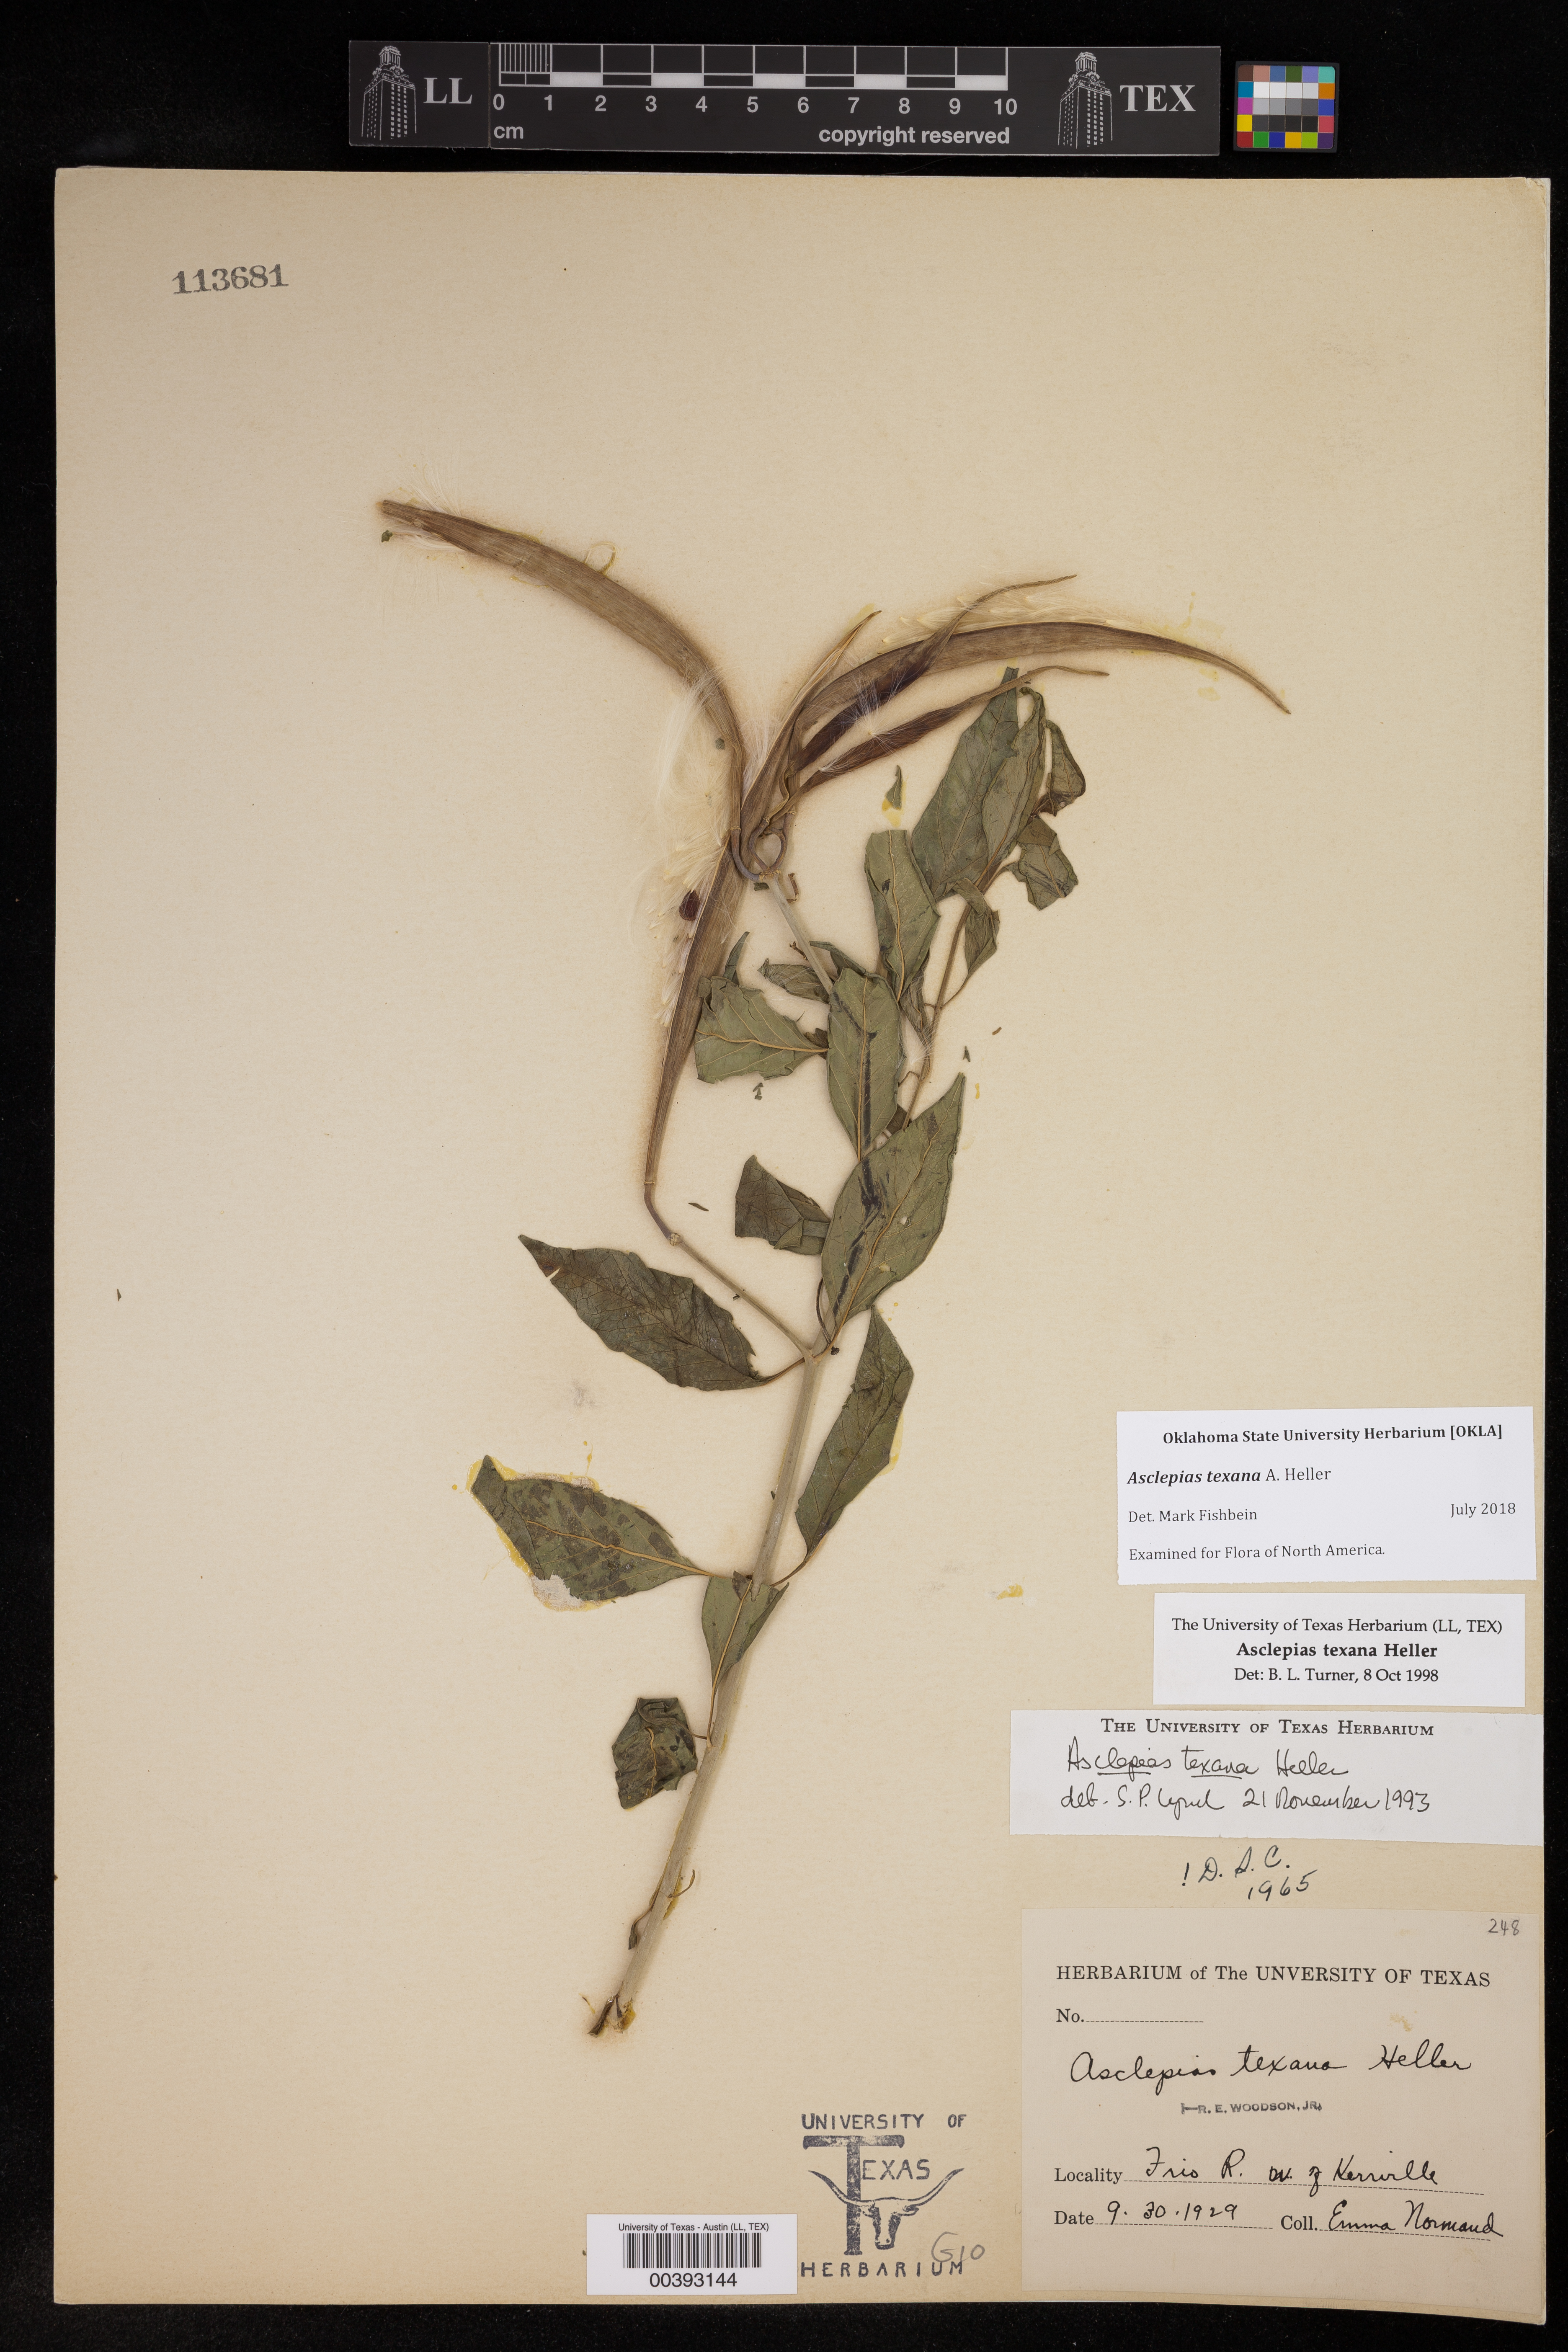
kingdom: Plantae
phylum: Tracheophyta
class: Magnoliopsida
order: Gentianales
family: Apocynaceae
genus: Asclepias
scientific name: Asclepias texana
